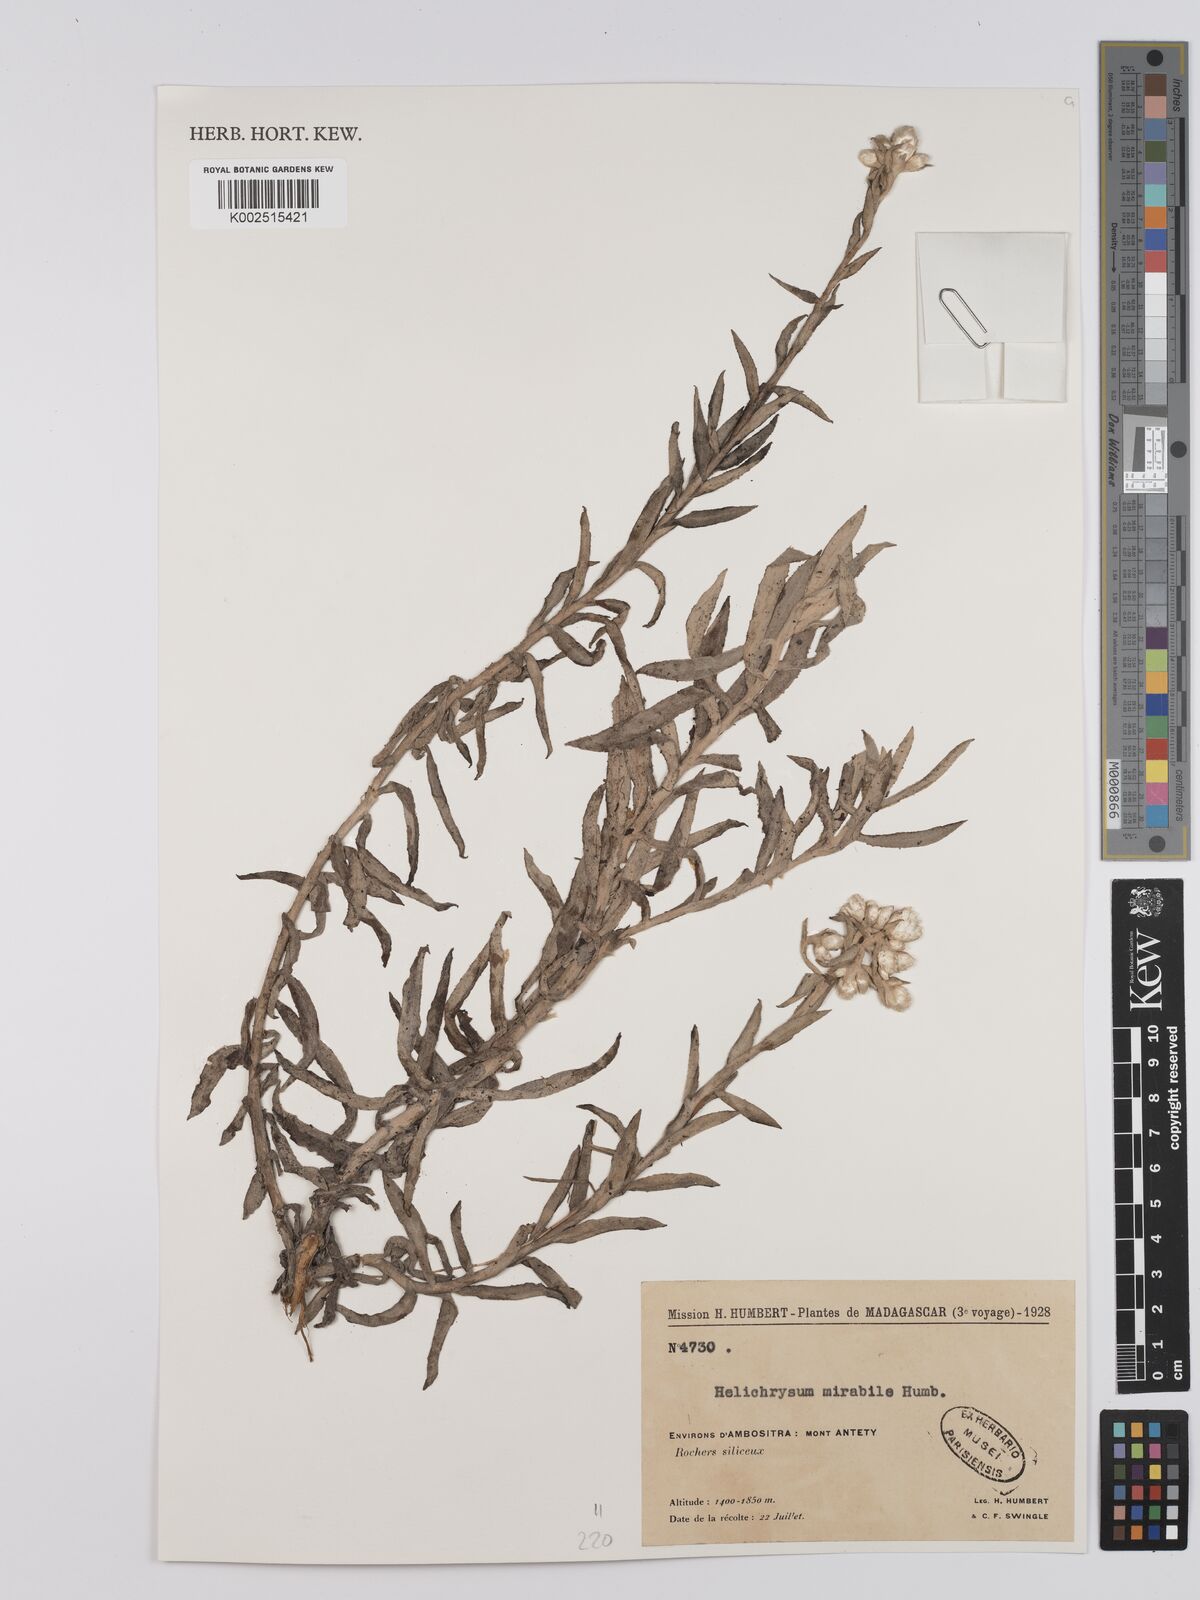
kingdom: Plantae
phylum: Tracheophyta
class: Magnoliopsida
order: Asterales
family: Asteraceae
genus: Helichrysum
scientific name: Helichrysum mirabile
